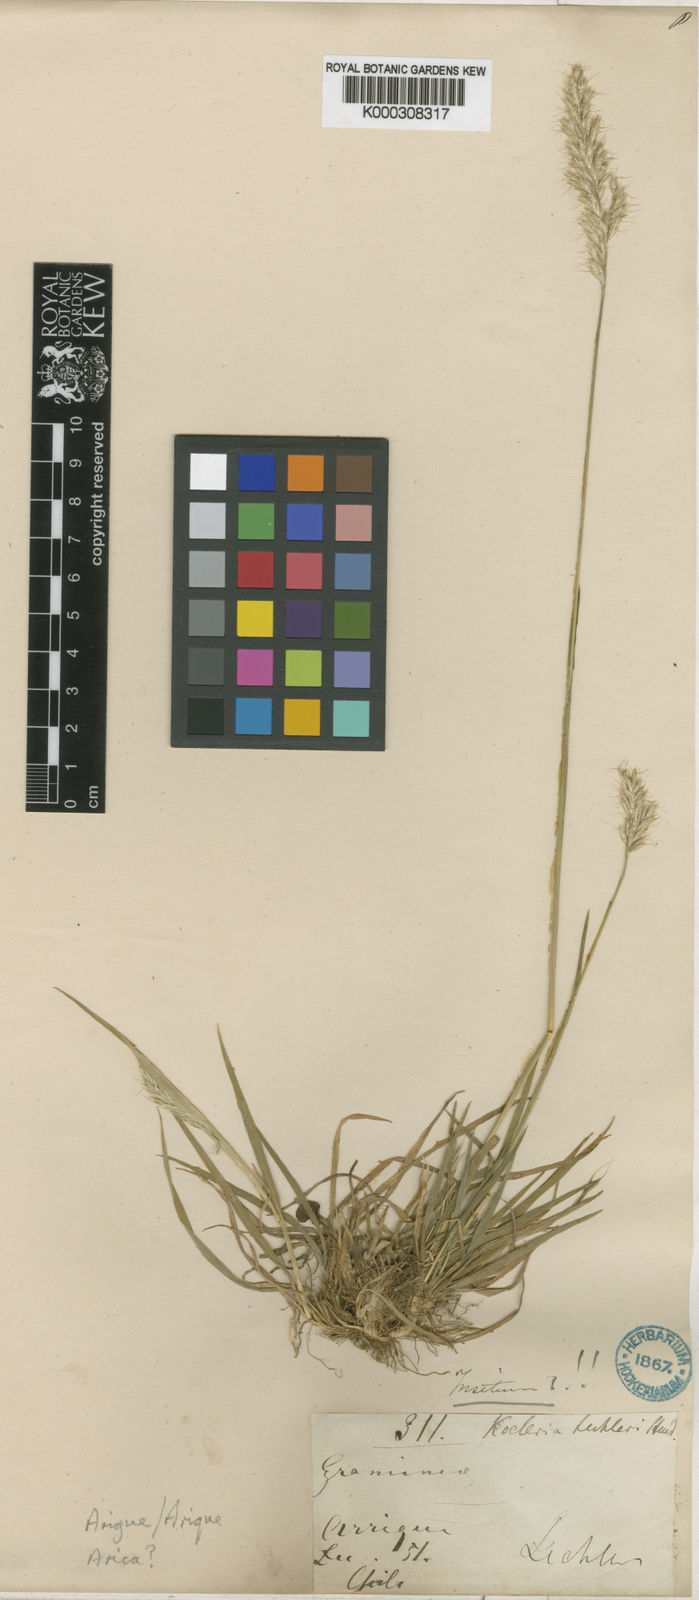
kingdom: Plantae
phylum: Tracheophyta
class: Liliopsida
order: Poales
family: Poaceae
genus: Trisetum
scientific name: Trisetum caudulatum
